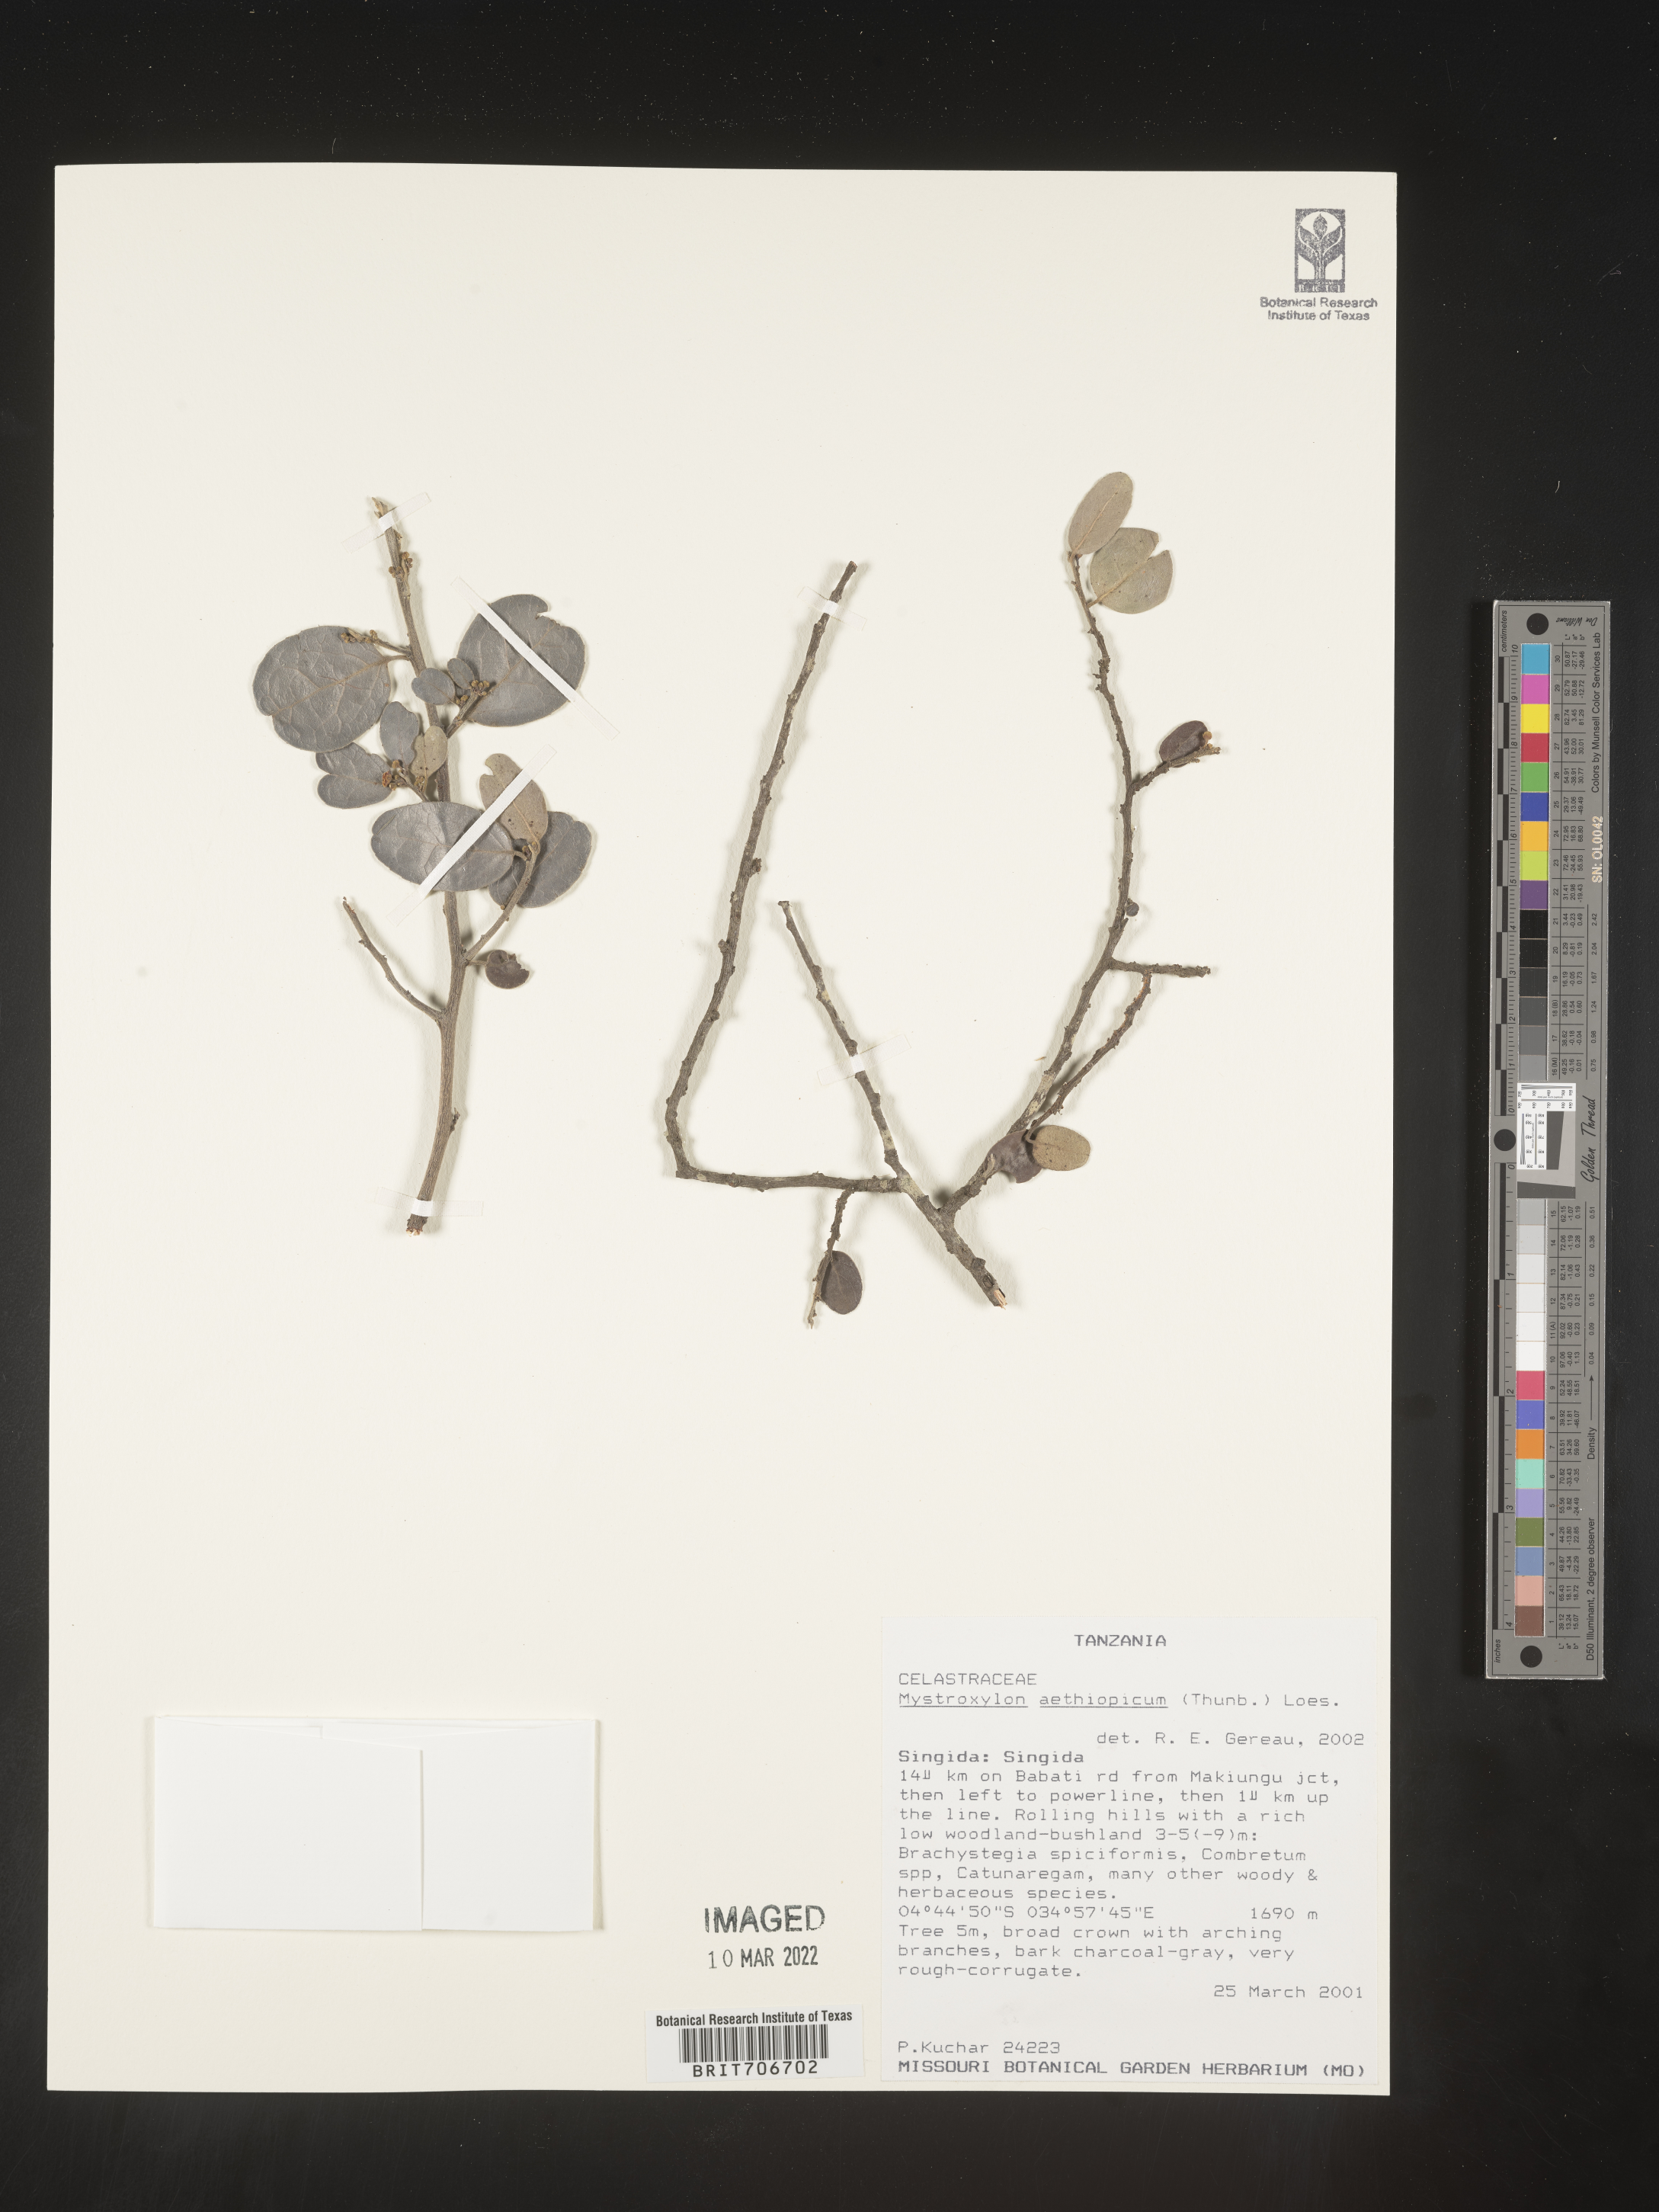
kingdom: Plantae
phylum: Tracheophyta
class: Magnoliopsida
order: Celastrales
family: Celastraceae
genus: Mystroxylon
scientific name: Mystroxylon
